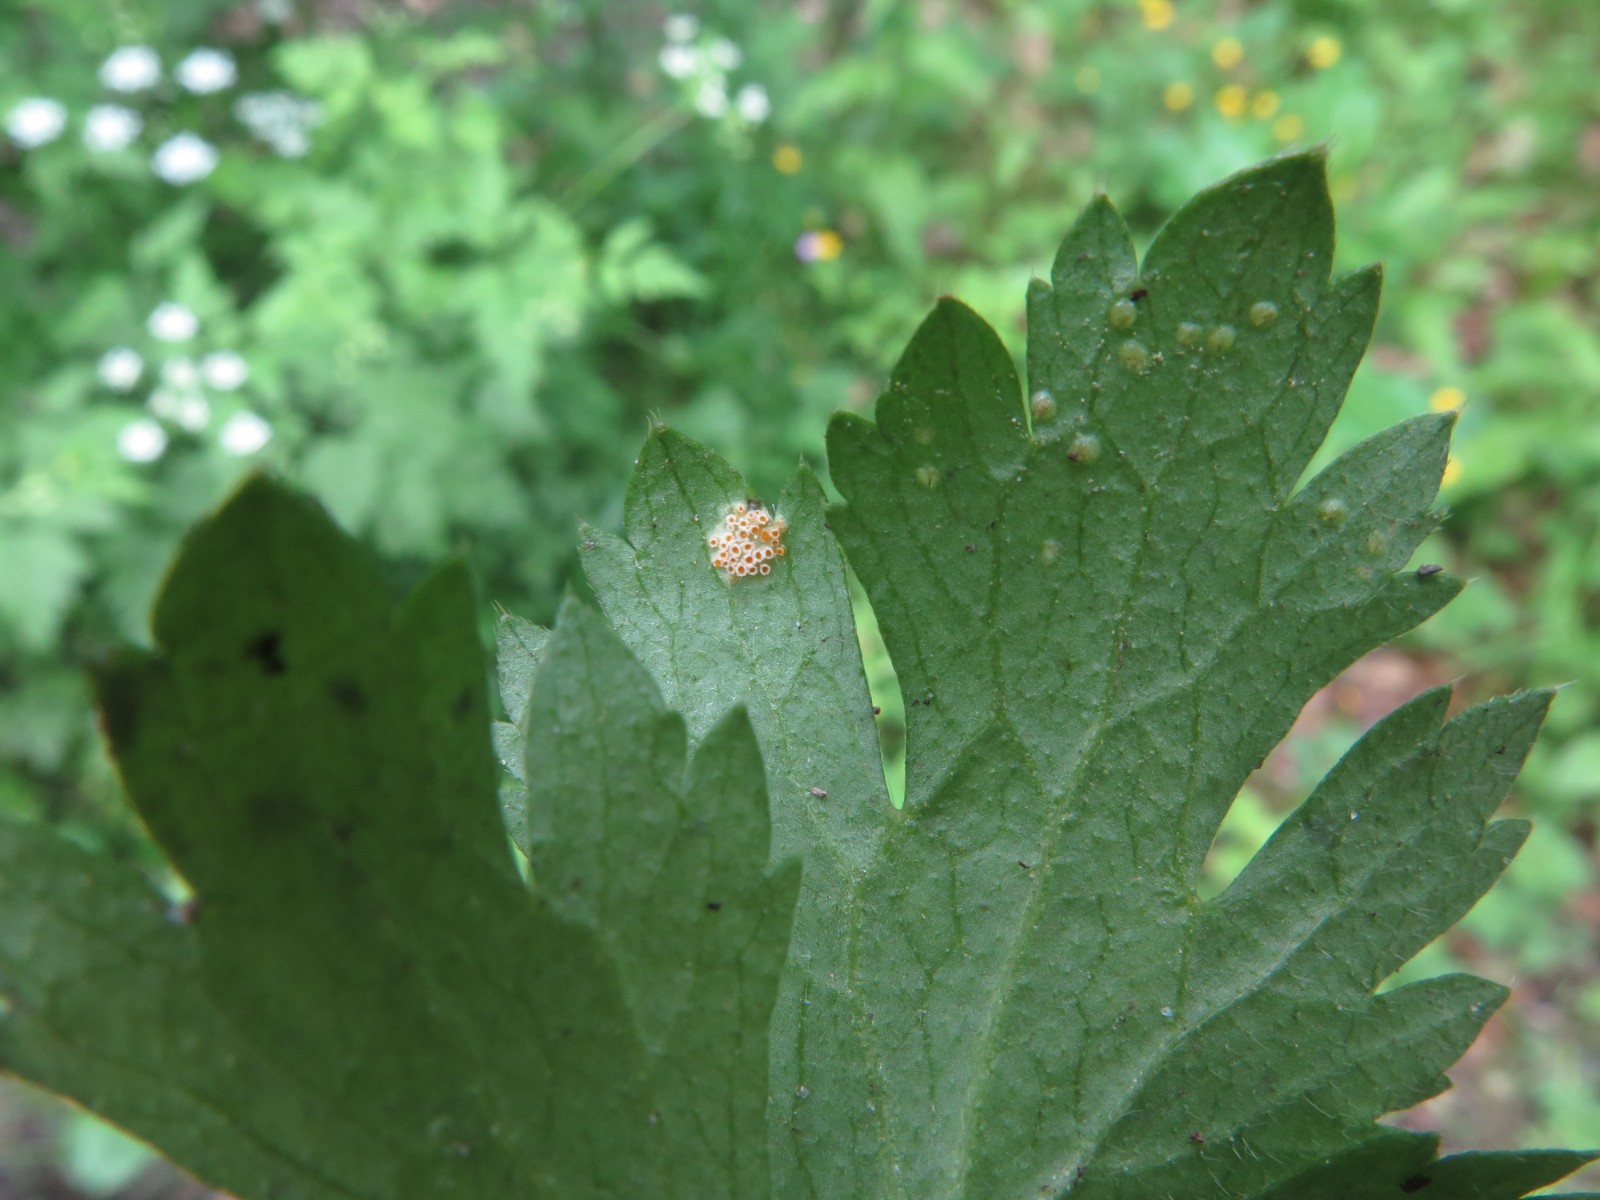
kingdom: Fungi
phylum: Basidiomycota
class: Pucciniomycetes
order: Pucciniales
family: Pucciniaceae
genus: Puccinia
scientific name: Puccinia recondita
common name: Brown rust of wheat
